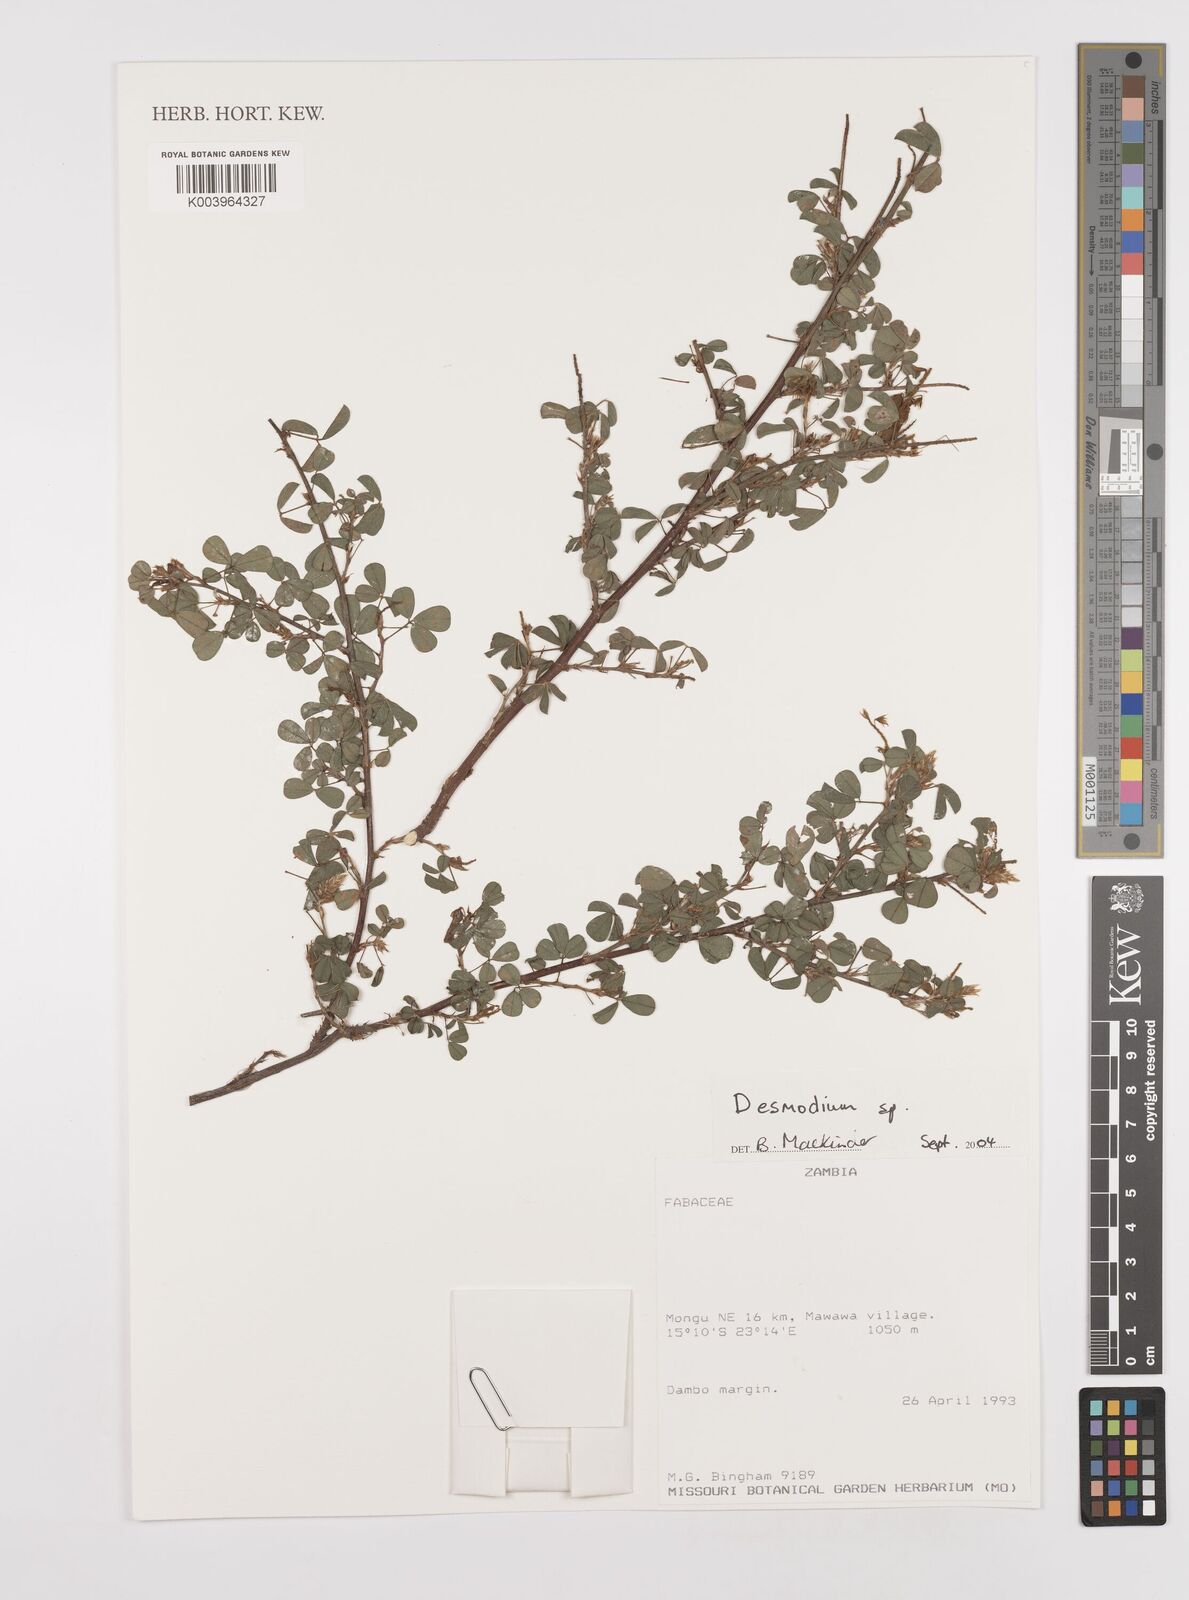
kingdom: Plantae
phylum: Tracheophyta
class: Magnoliopsida
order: Fabales
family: Fabaceae
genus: Desmodium
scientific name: Desmodium
